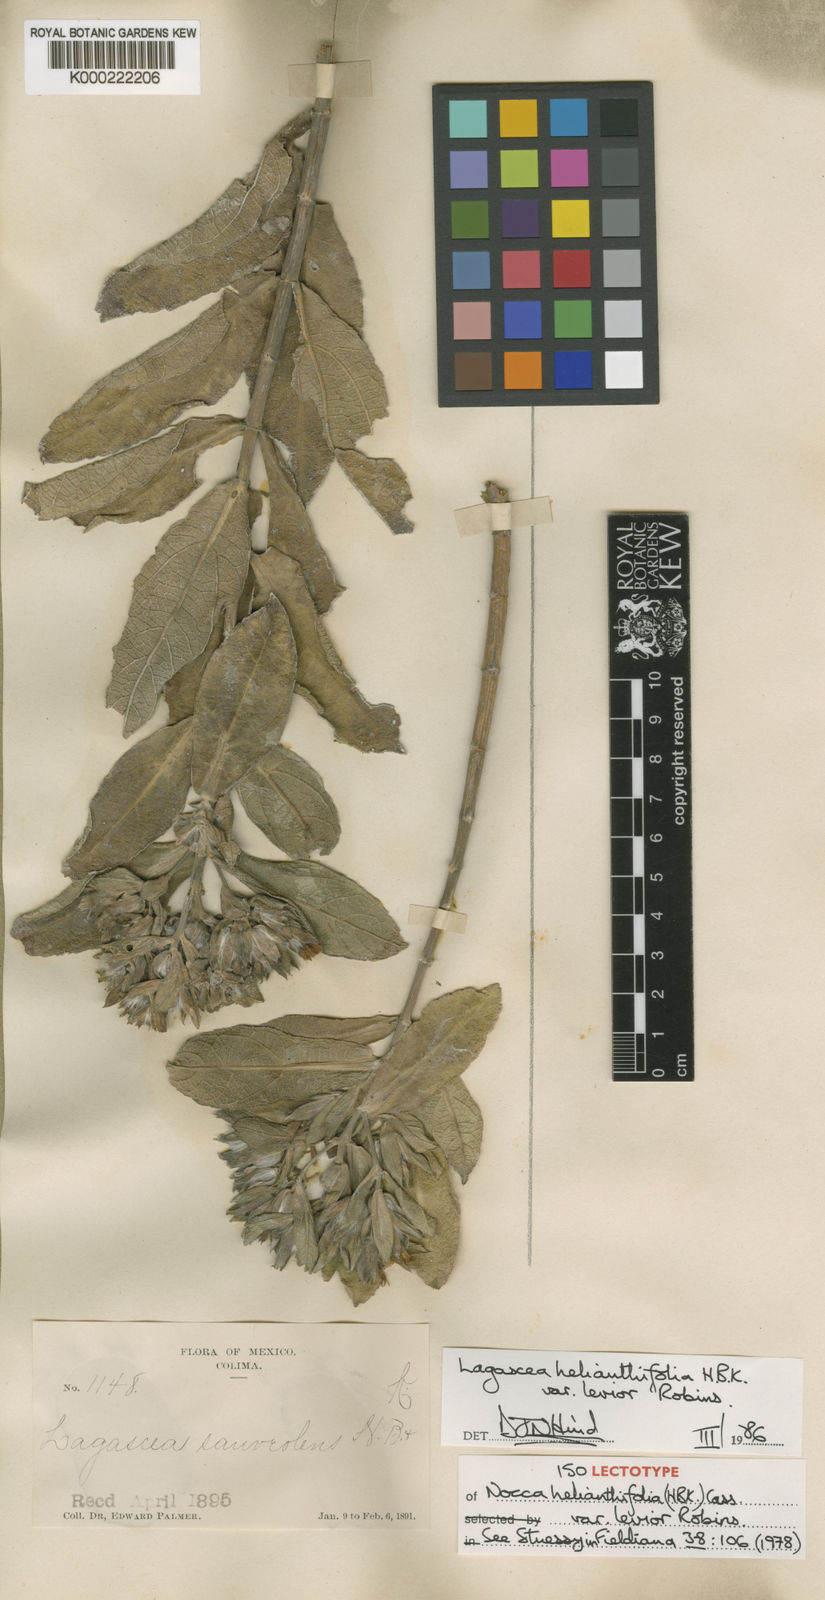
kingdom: Plantae
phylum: Tracheophyta
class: Magnoliopsida
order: Asterales
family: Asteraceae
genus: Lagascea
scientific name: Lagascea helianthifolia
